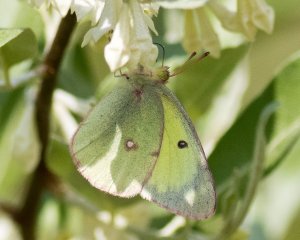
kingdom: Animalia
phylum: Arthropoda
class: Insecta
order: Lepidoptera
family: Pieridae
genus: Colias
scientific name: Colias philodice
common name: Clouded Sulphur
